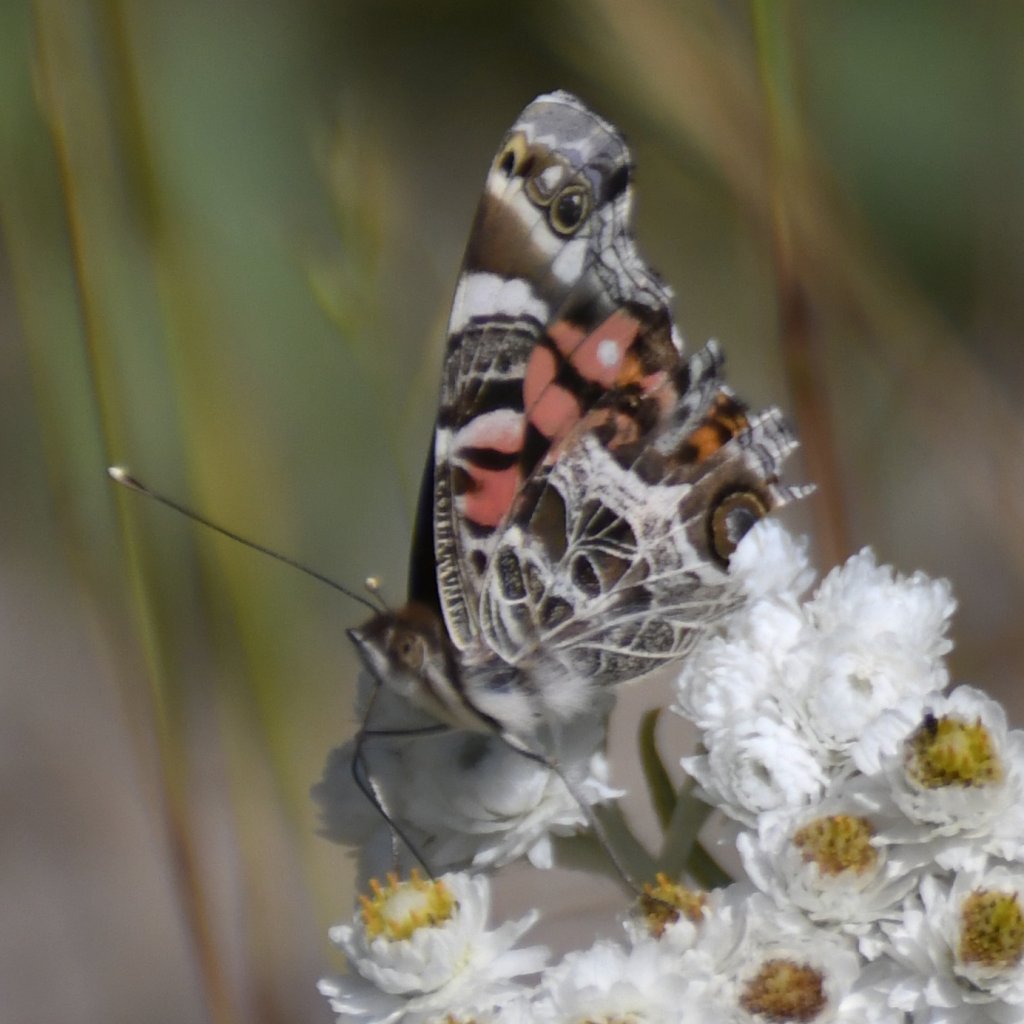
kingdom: Animalia
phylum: Arthropoda
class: Insecta
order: Lepidoptera
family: Nymphalidae
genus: Vanessa
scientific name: Vanessa virginiensis
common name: American Lady
